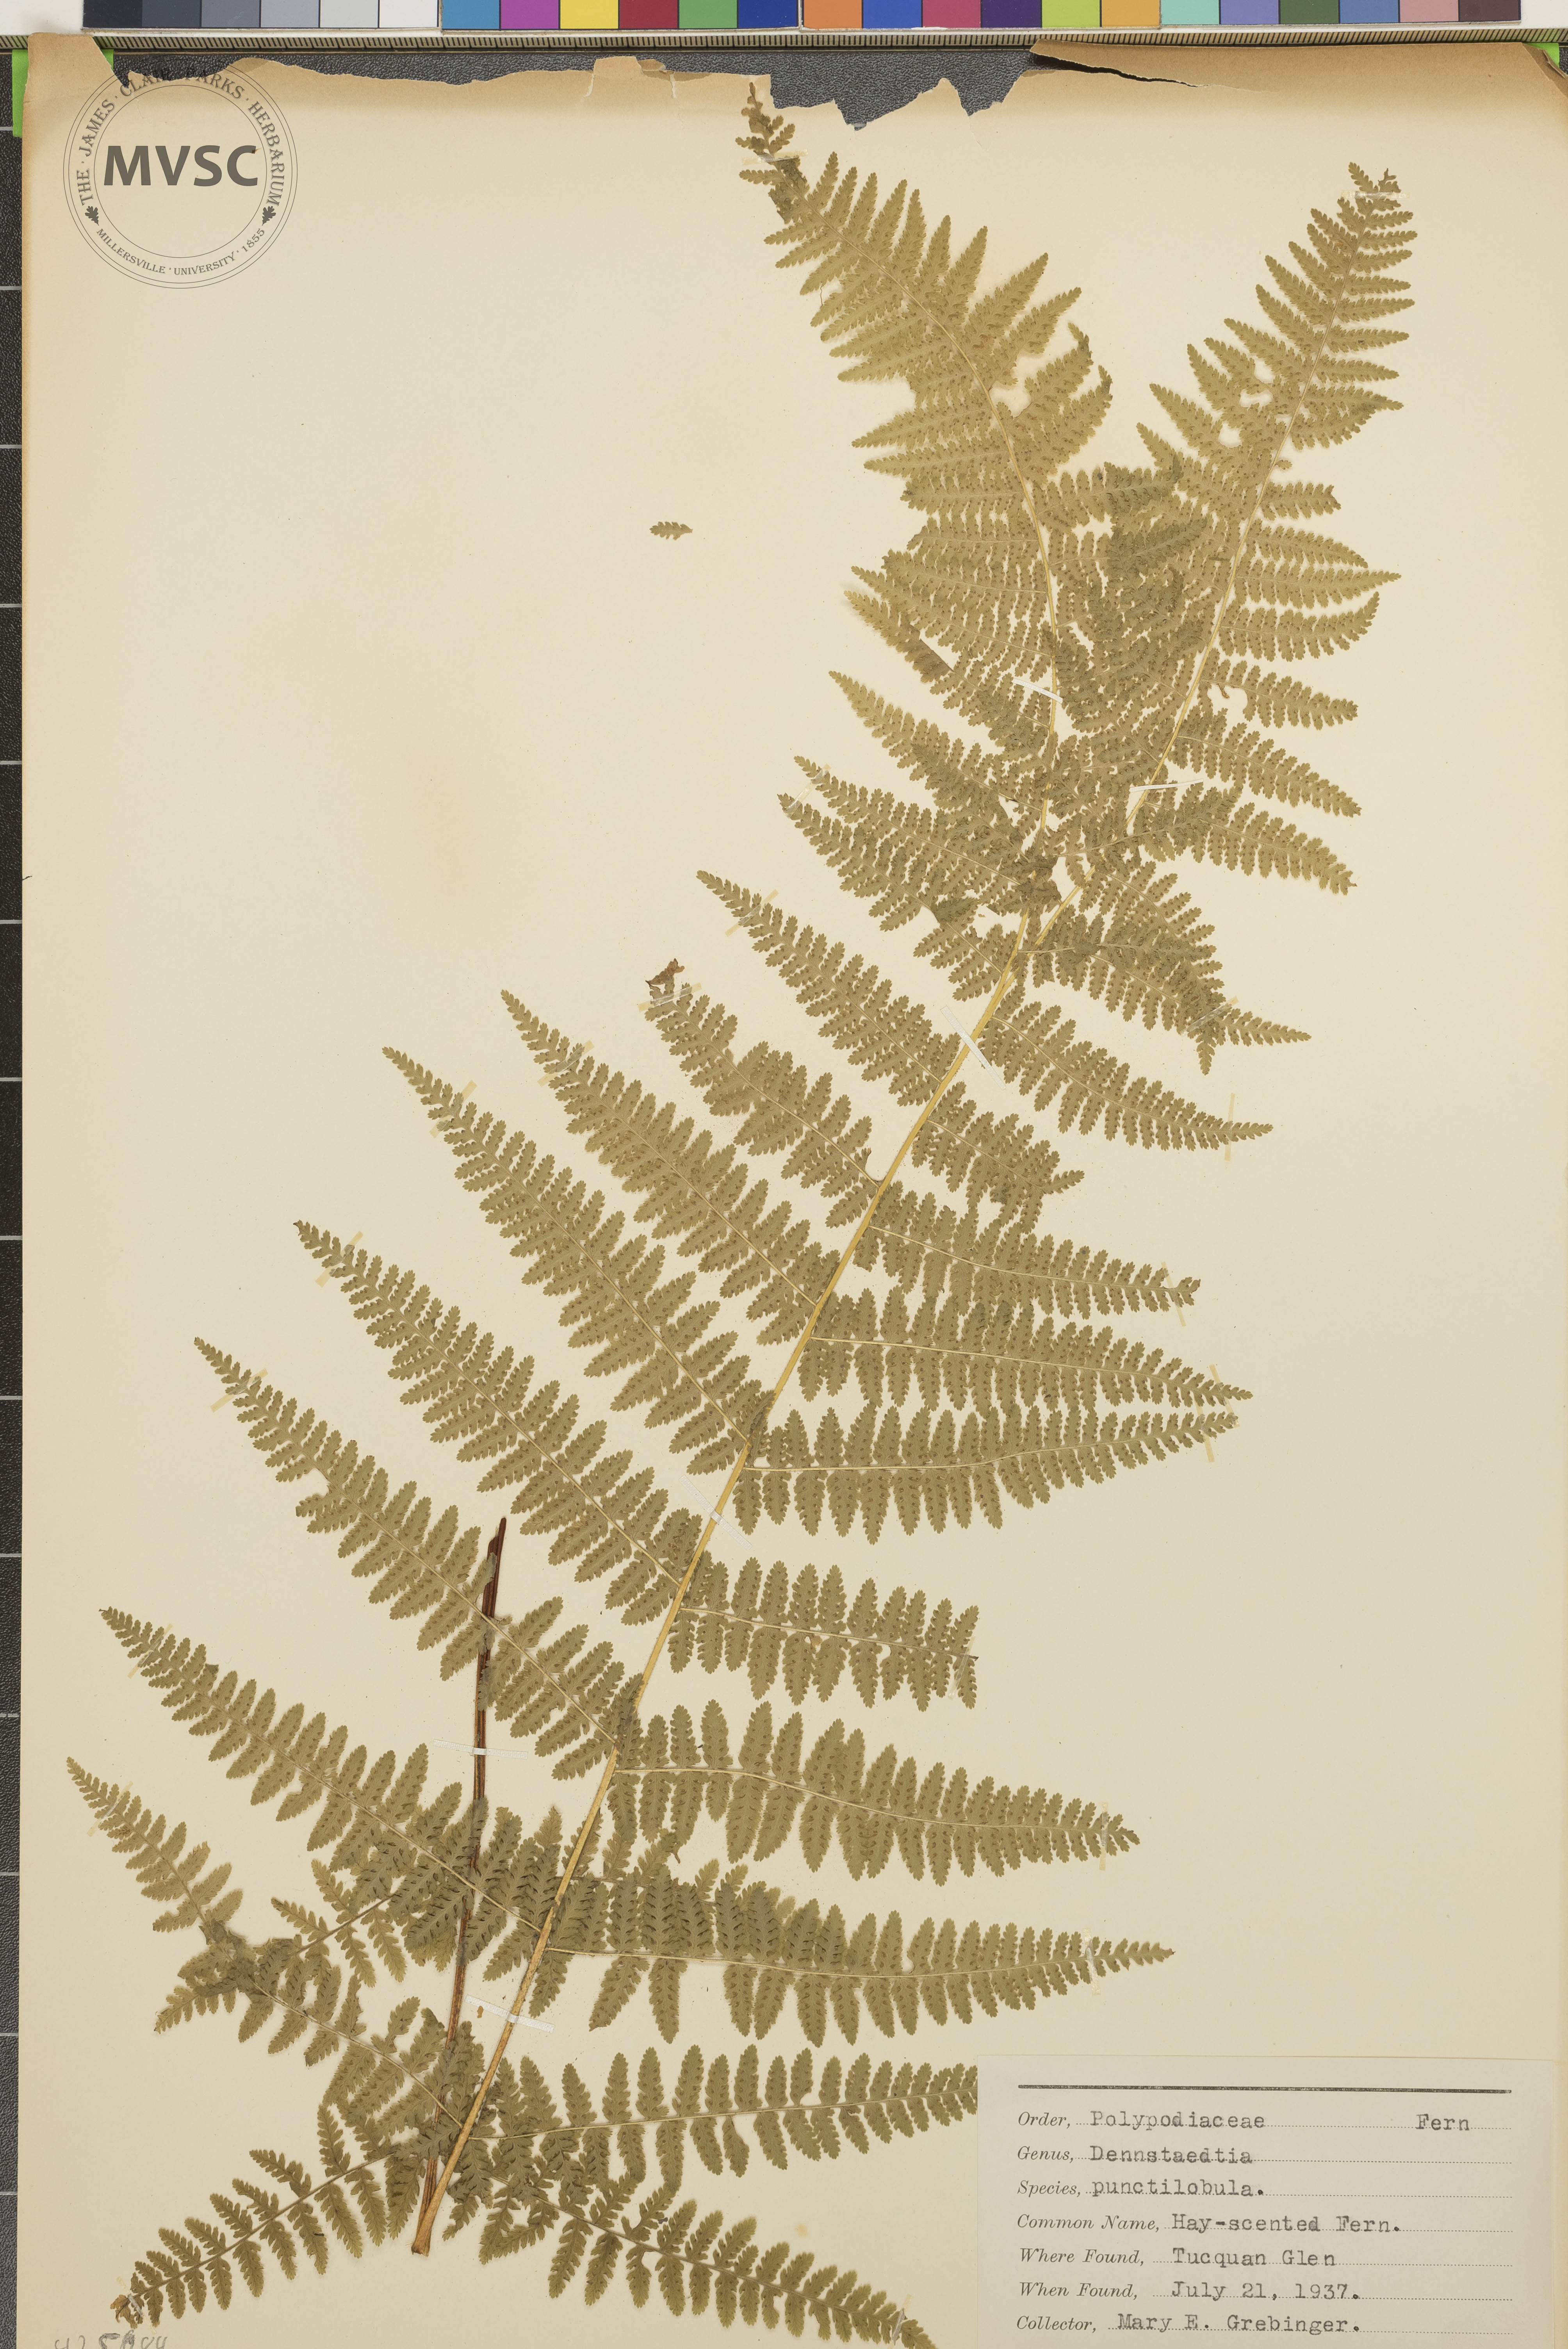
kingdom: Plantae
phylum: Tracheophyta
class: Polypodiopsida
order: Polypodiales
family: Dennstaedtiaceae
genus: Sitobolium
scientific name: Sitobolium punctilobum
